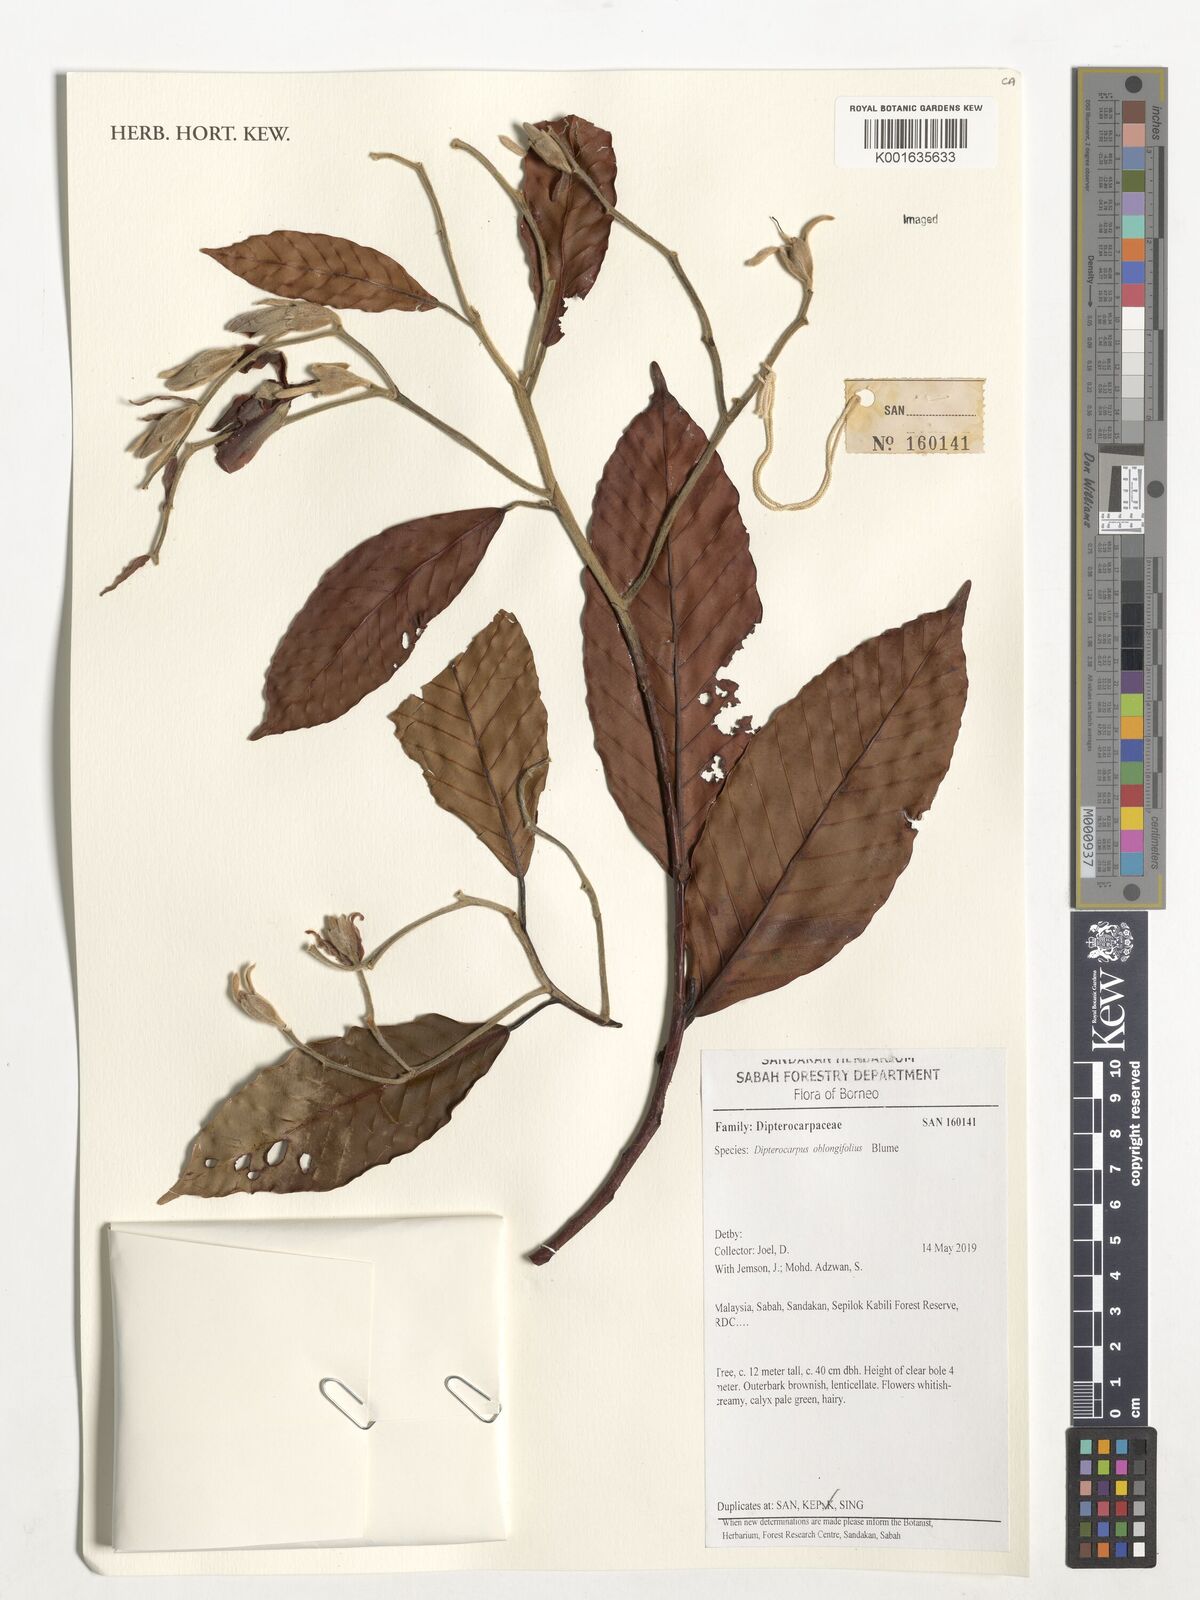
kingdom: Plantae
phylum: Tracheophyta
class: Magnoliopsida
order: Malvales
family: Dipterocarpaceae
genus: Dipterocarpus
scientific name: Dipterocarpus oblongifolius
